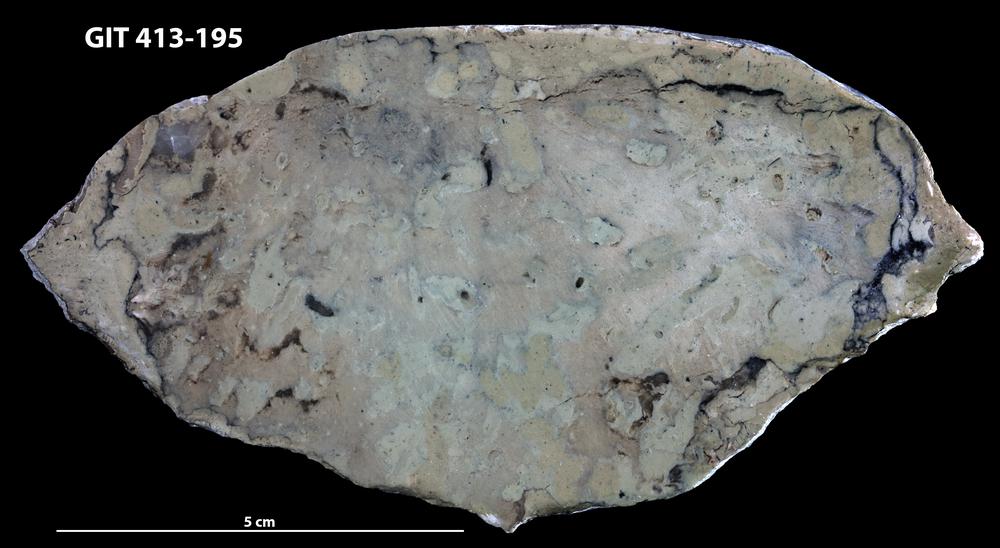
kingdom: Animalia
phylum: Porifera
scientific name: Porifera
